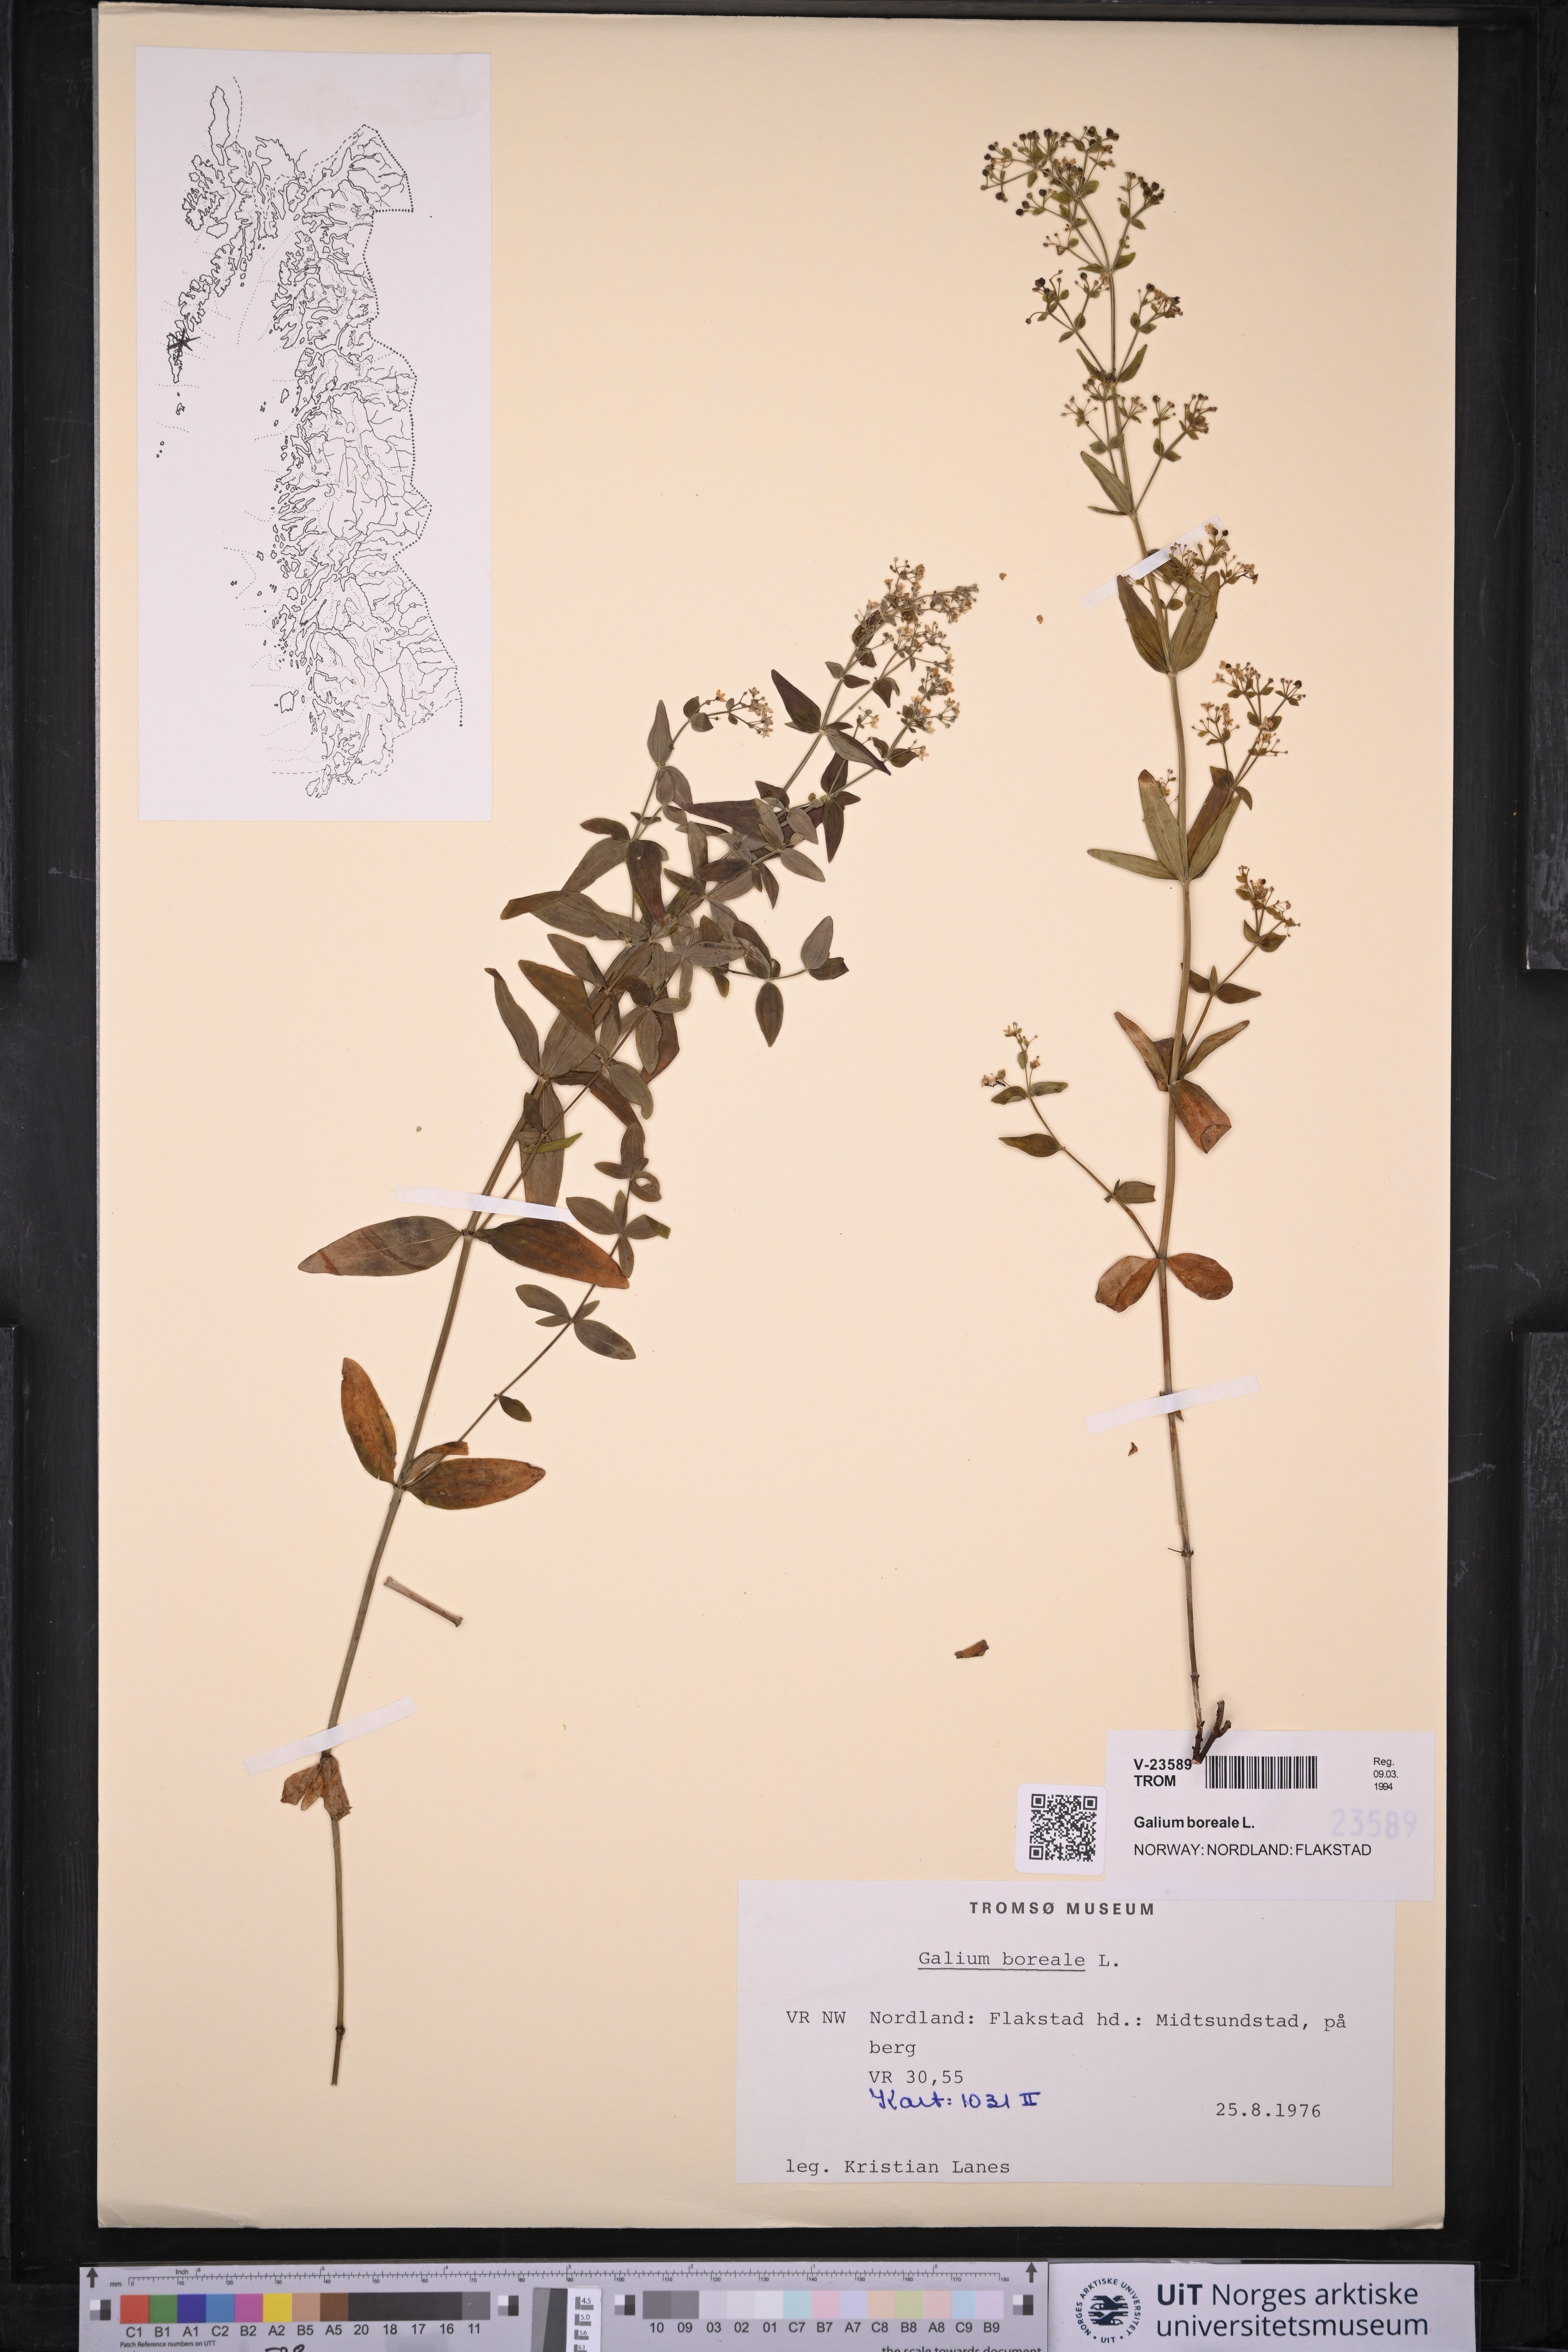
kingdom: Plantae
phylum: Tracheophyta
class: Magnoliopsida
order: Gentianales
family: Rubiaceae
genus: Galium
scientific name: Galium boreale
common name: Northern bedstraw
